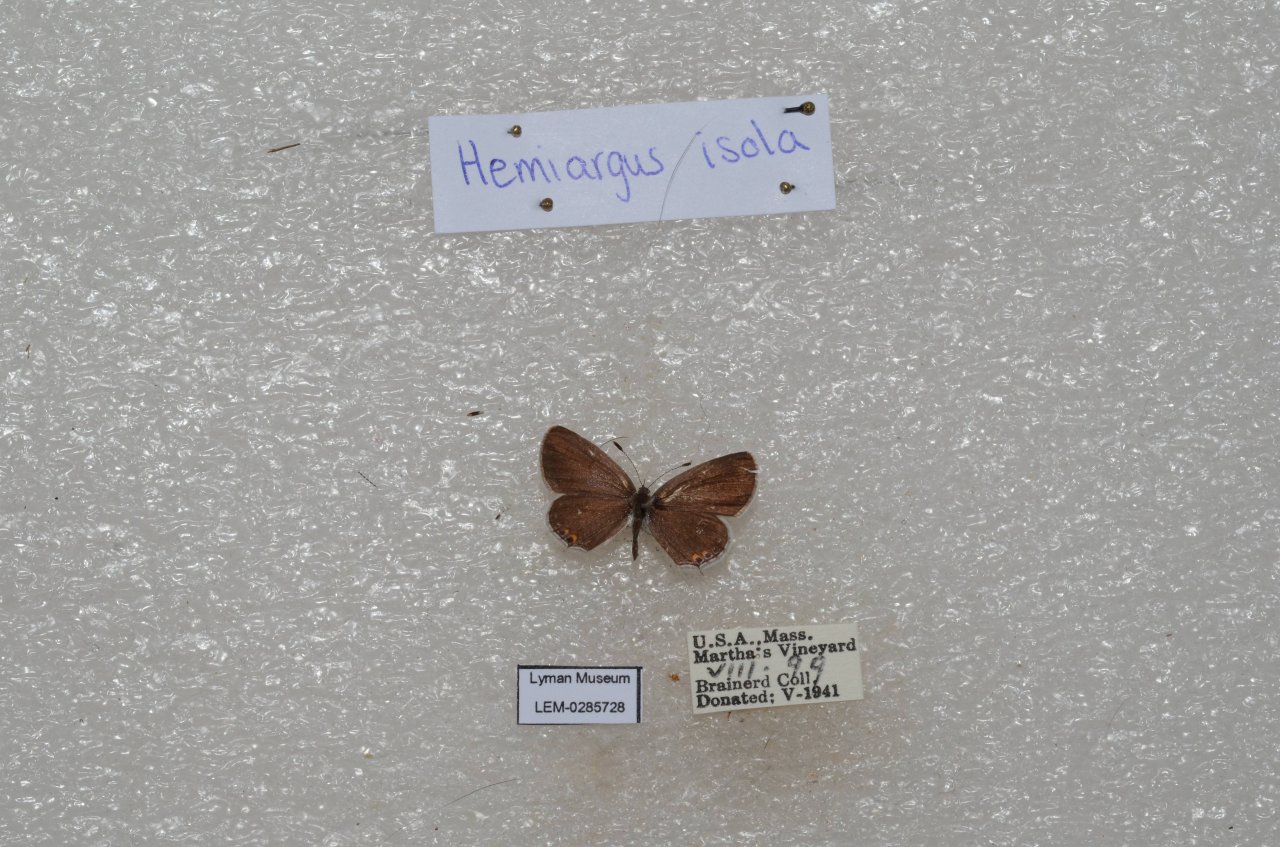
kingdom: Animalia
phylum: Arthropoda
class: Insecta
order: Lepidoptera
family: Lycaenidae
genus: Elkalyce
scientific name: Elkalyce comyntas
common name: Eastern Tailed-Blue
